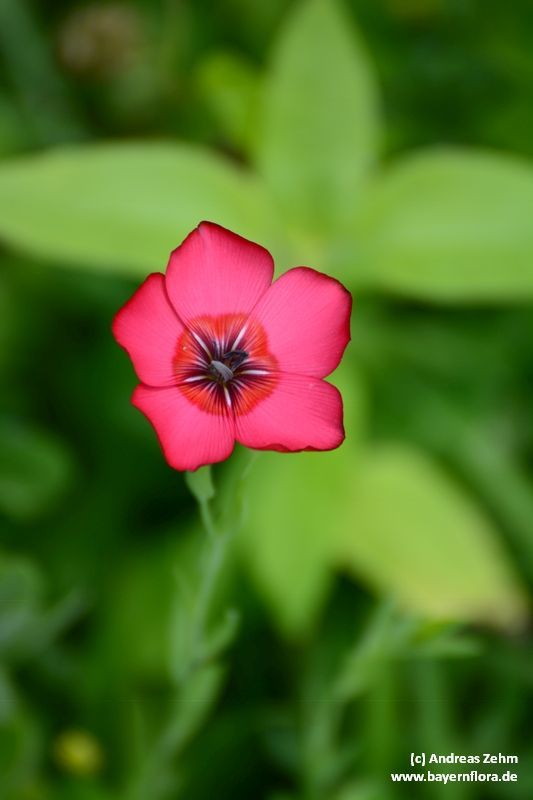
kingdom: Plantae
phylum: Tracheophyta
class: Magnoliopsida
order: Malpighiales
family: Linaceae
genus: Linum
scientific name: Linum grandiflorum
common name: Crimson flax
